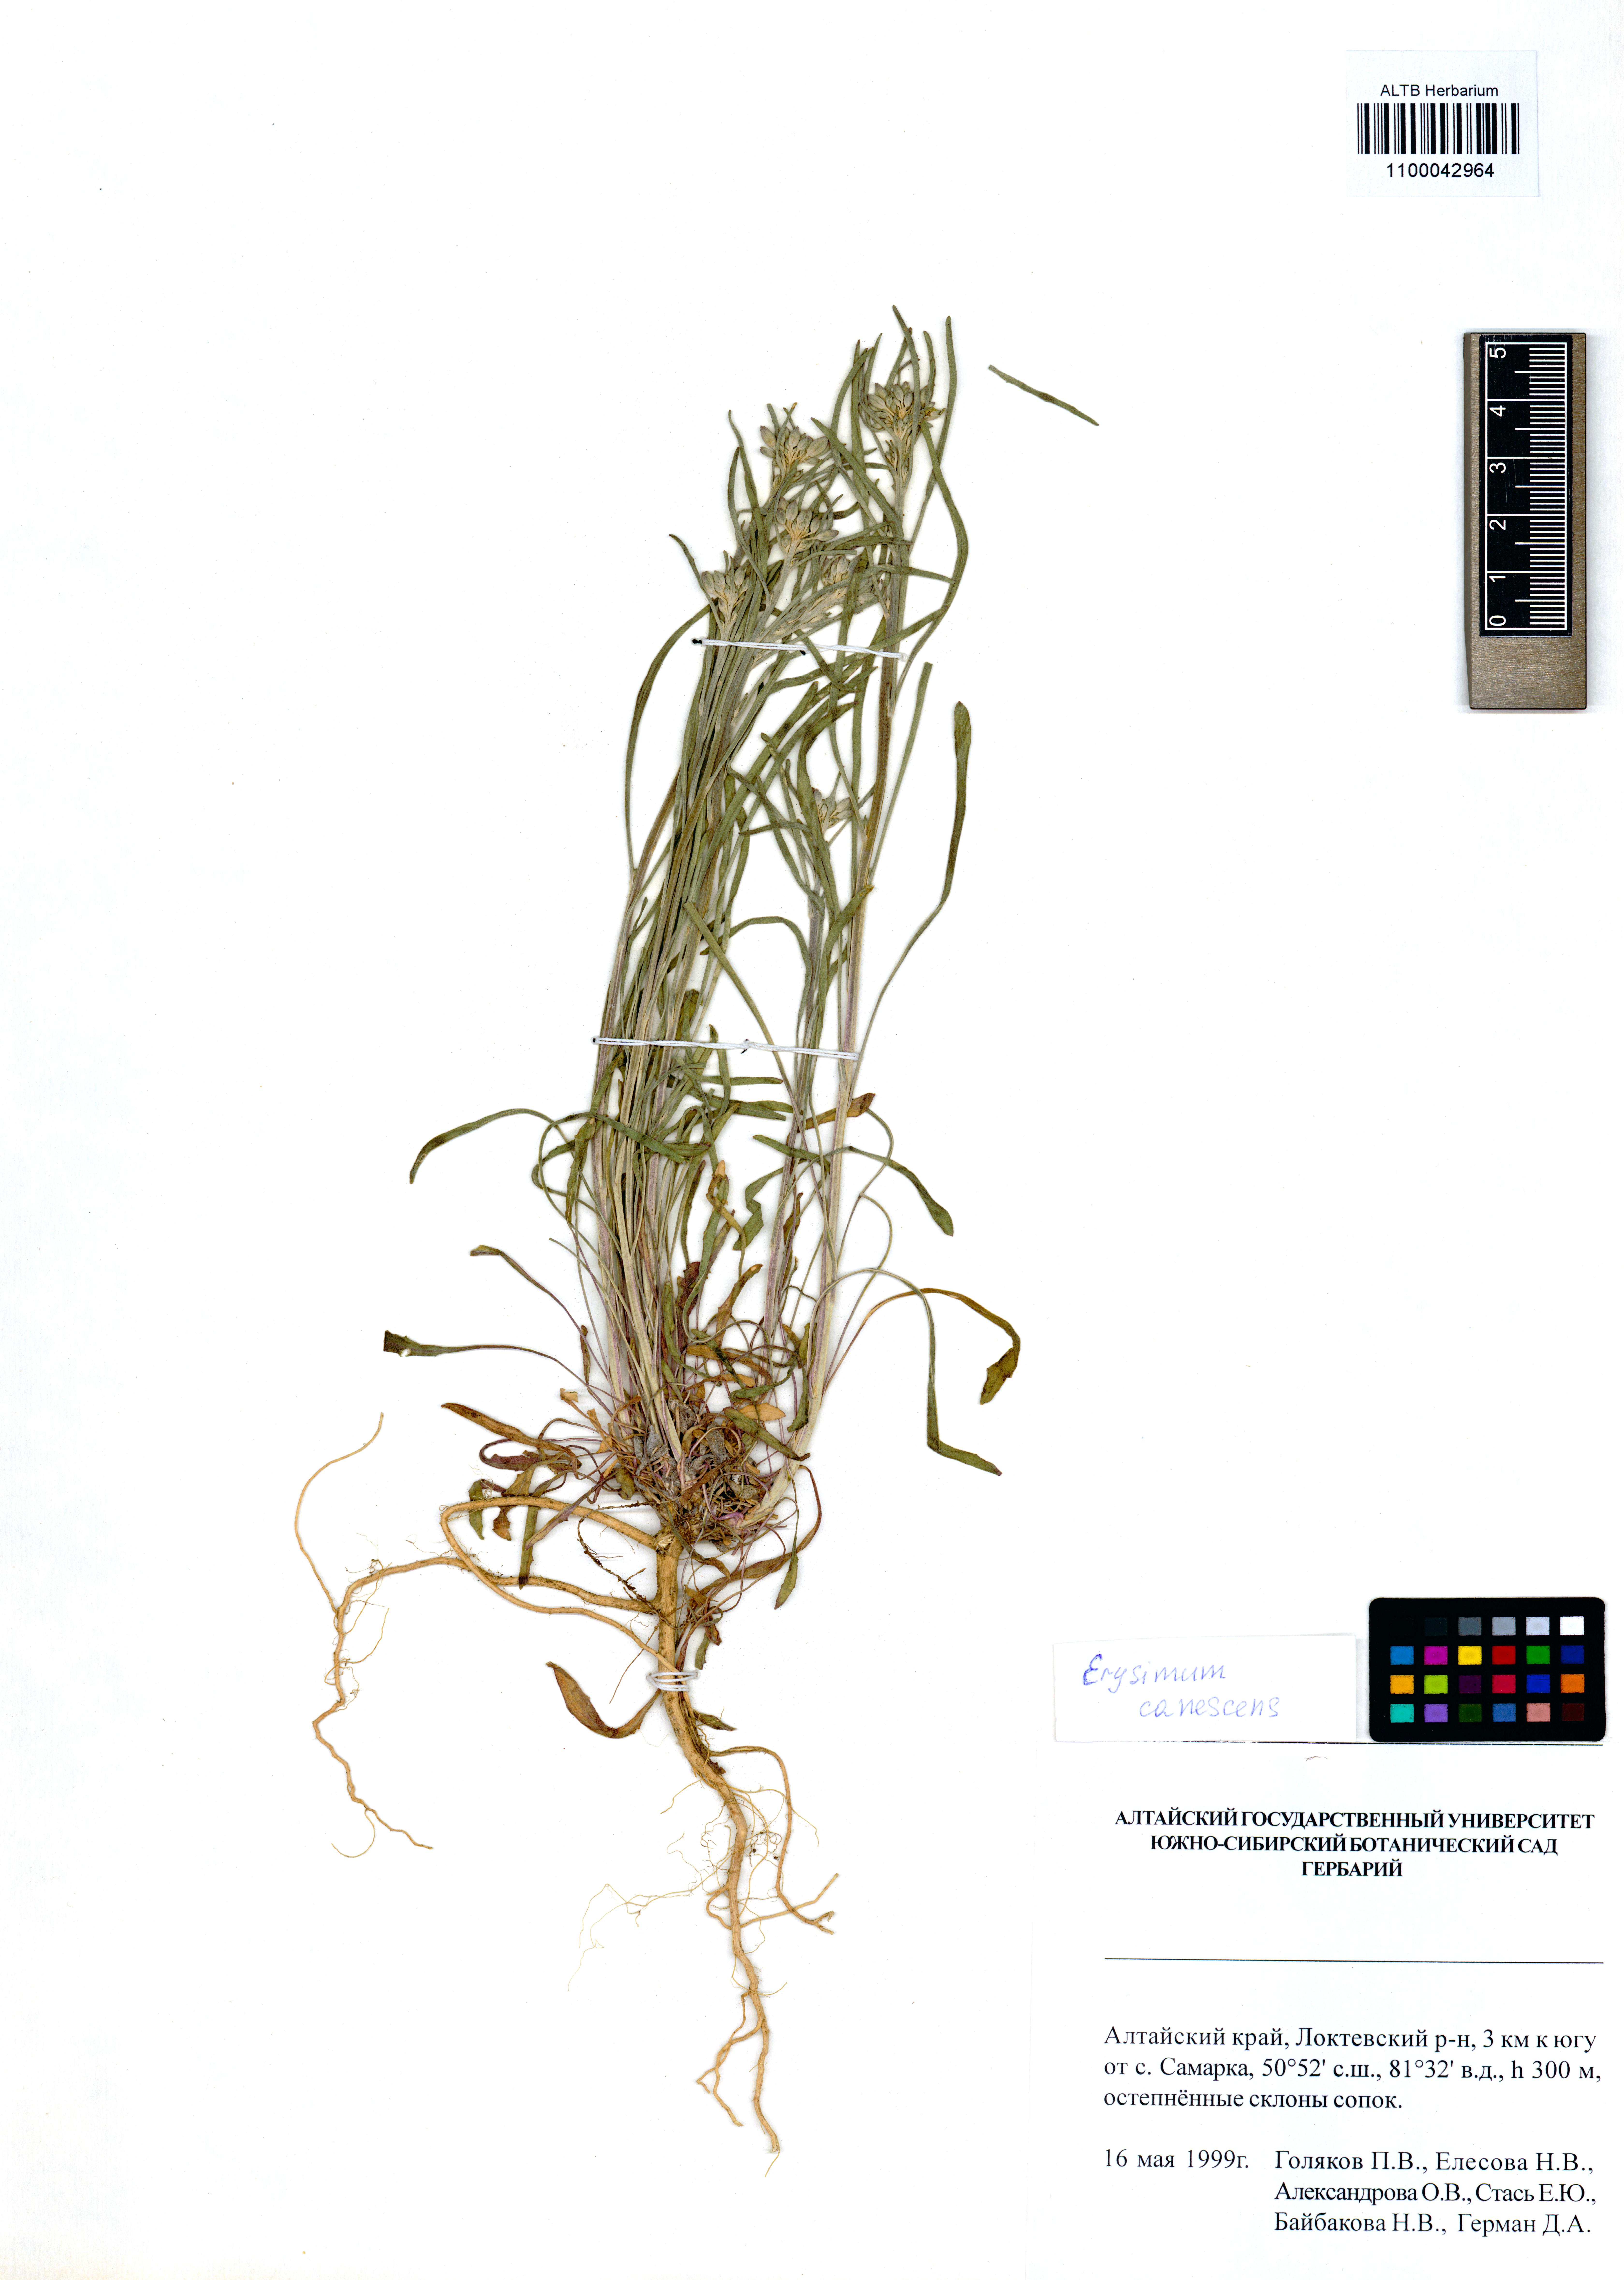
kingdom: Plantae
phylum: Tracheophyta
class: Magnoliopsida
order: Brassicales
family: Brassicaceae
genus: Erysimum
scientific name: Erysimum canescens
